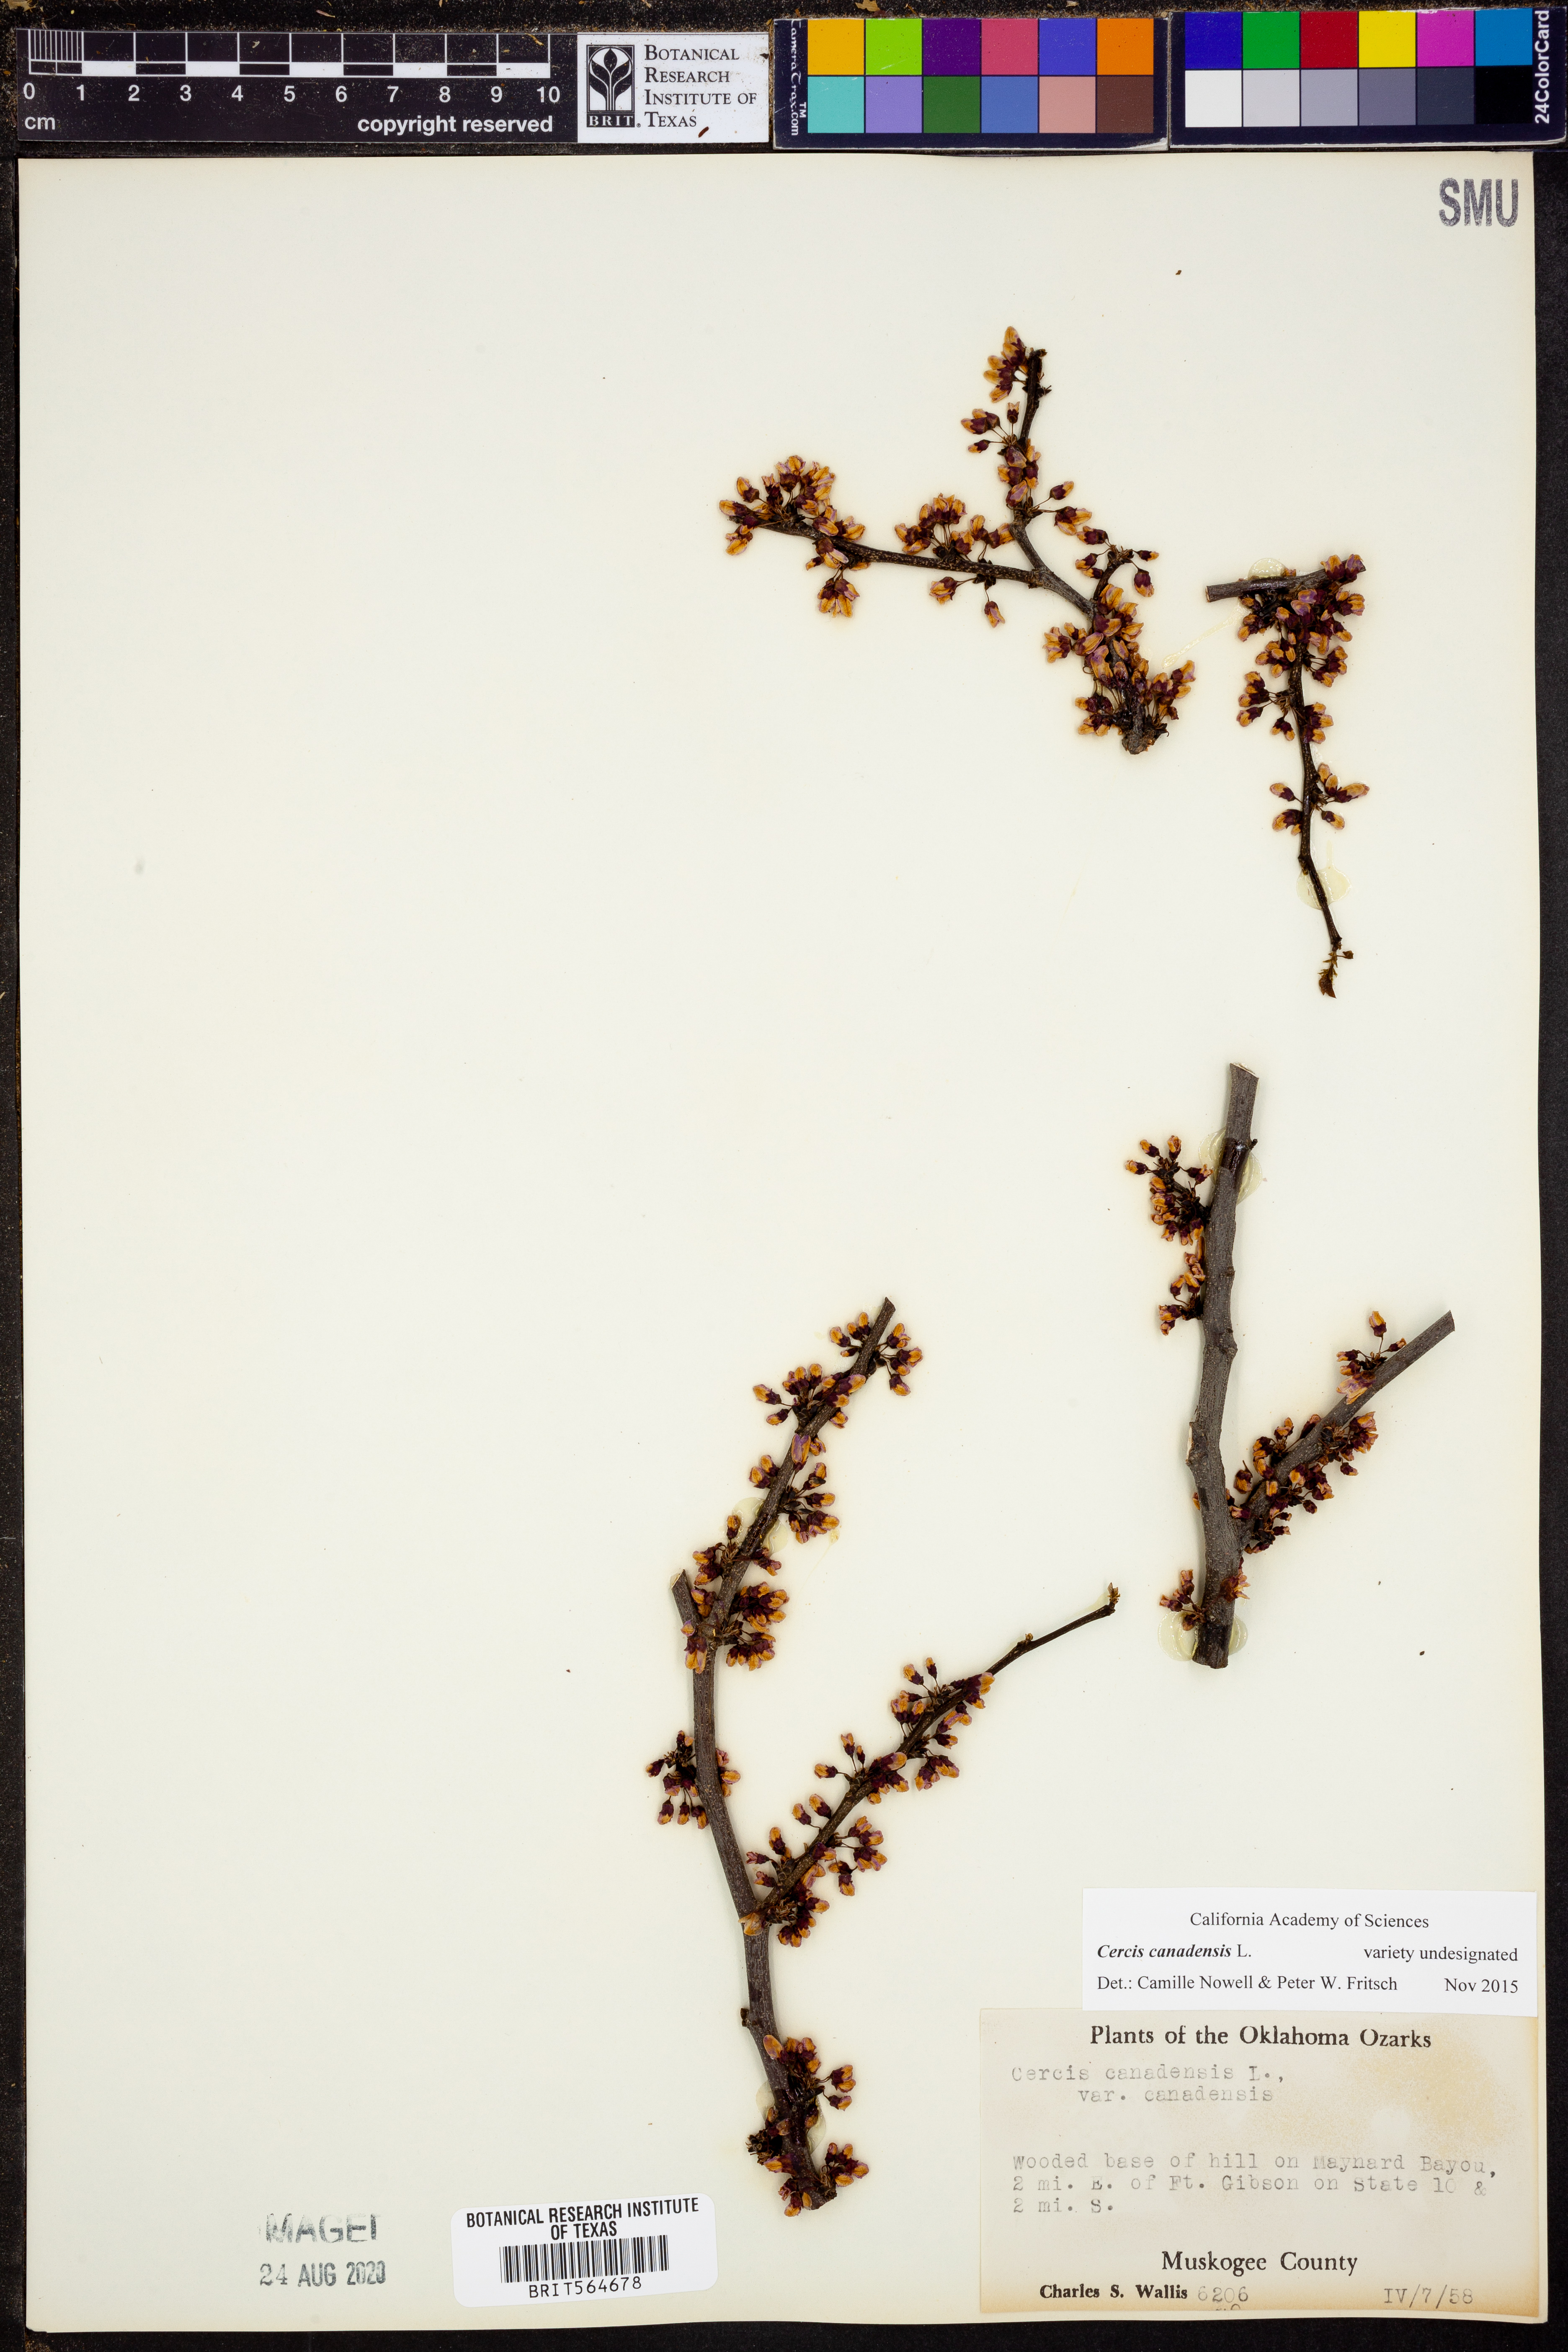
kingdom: Plantae
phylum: Tracheophyta
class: Magnoliopsida
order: Fabales
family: Fabaceae
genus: Cercis
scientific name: Cercis canadensis
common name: Eastern redbud
